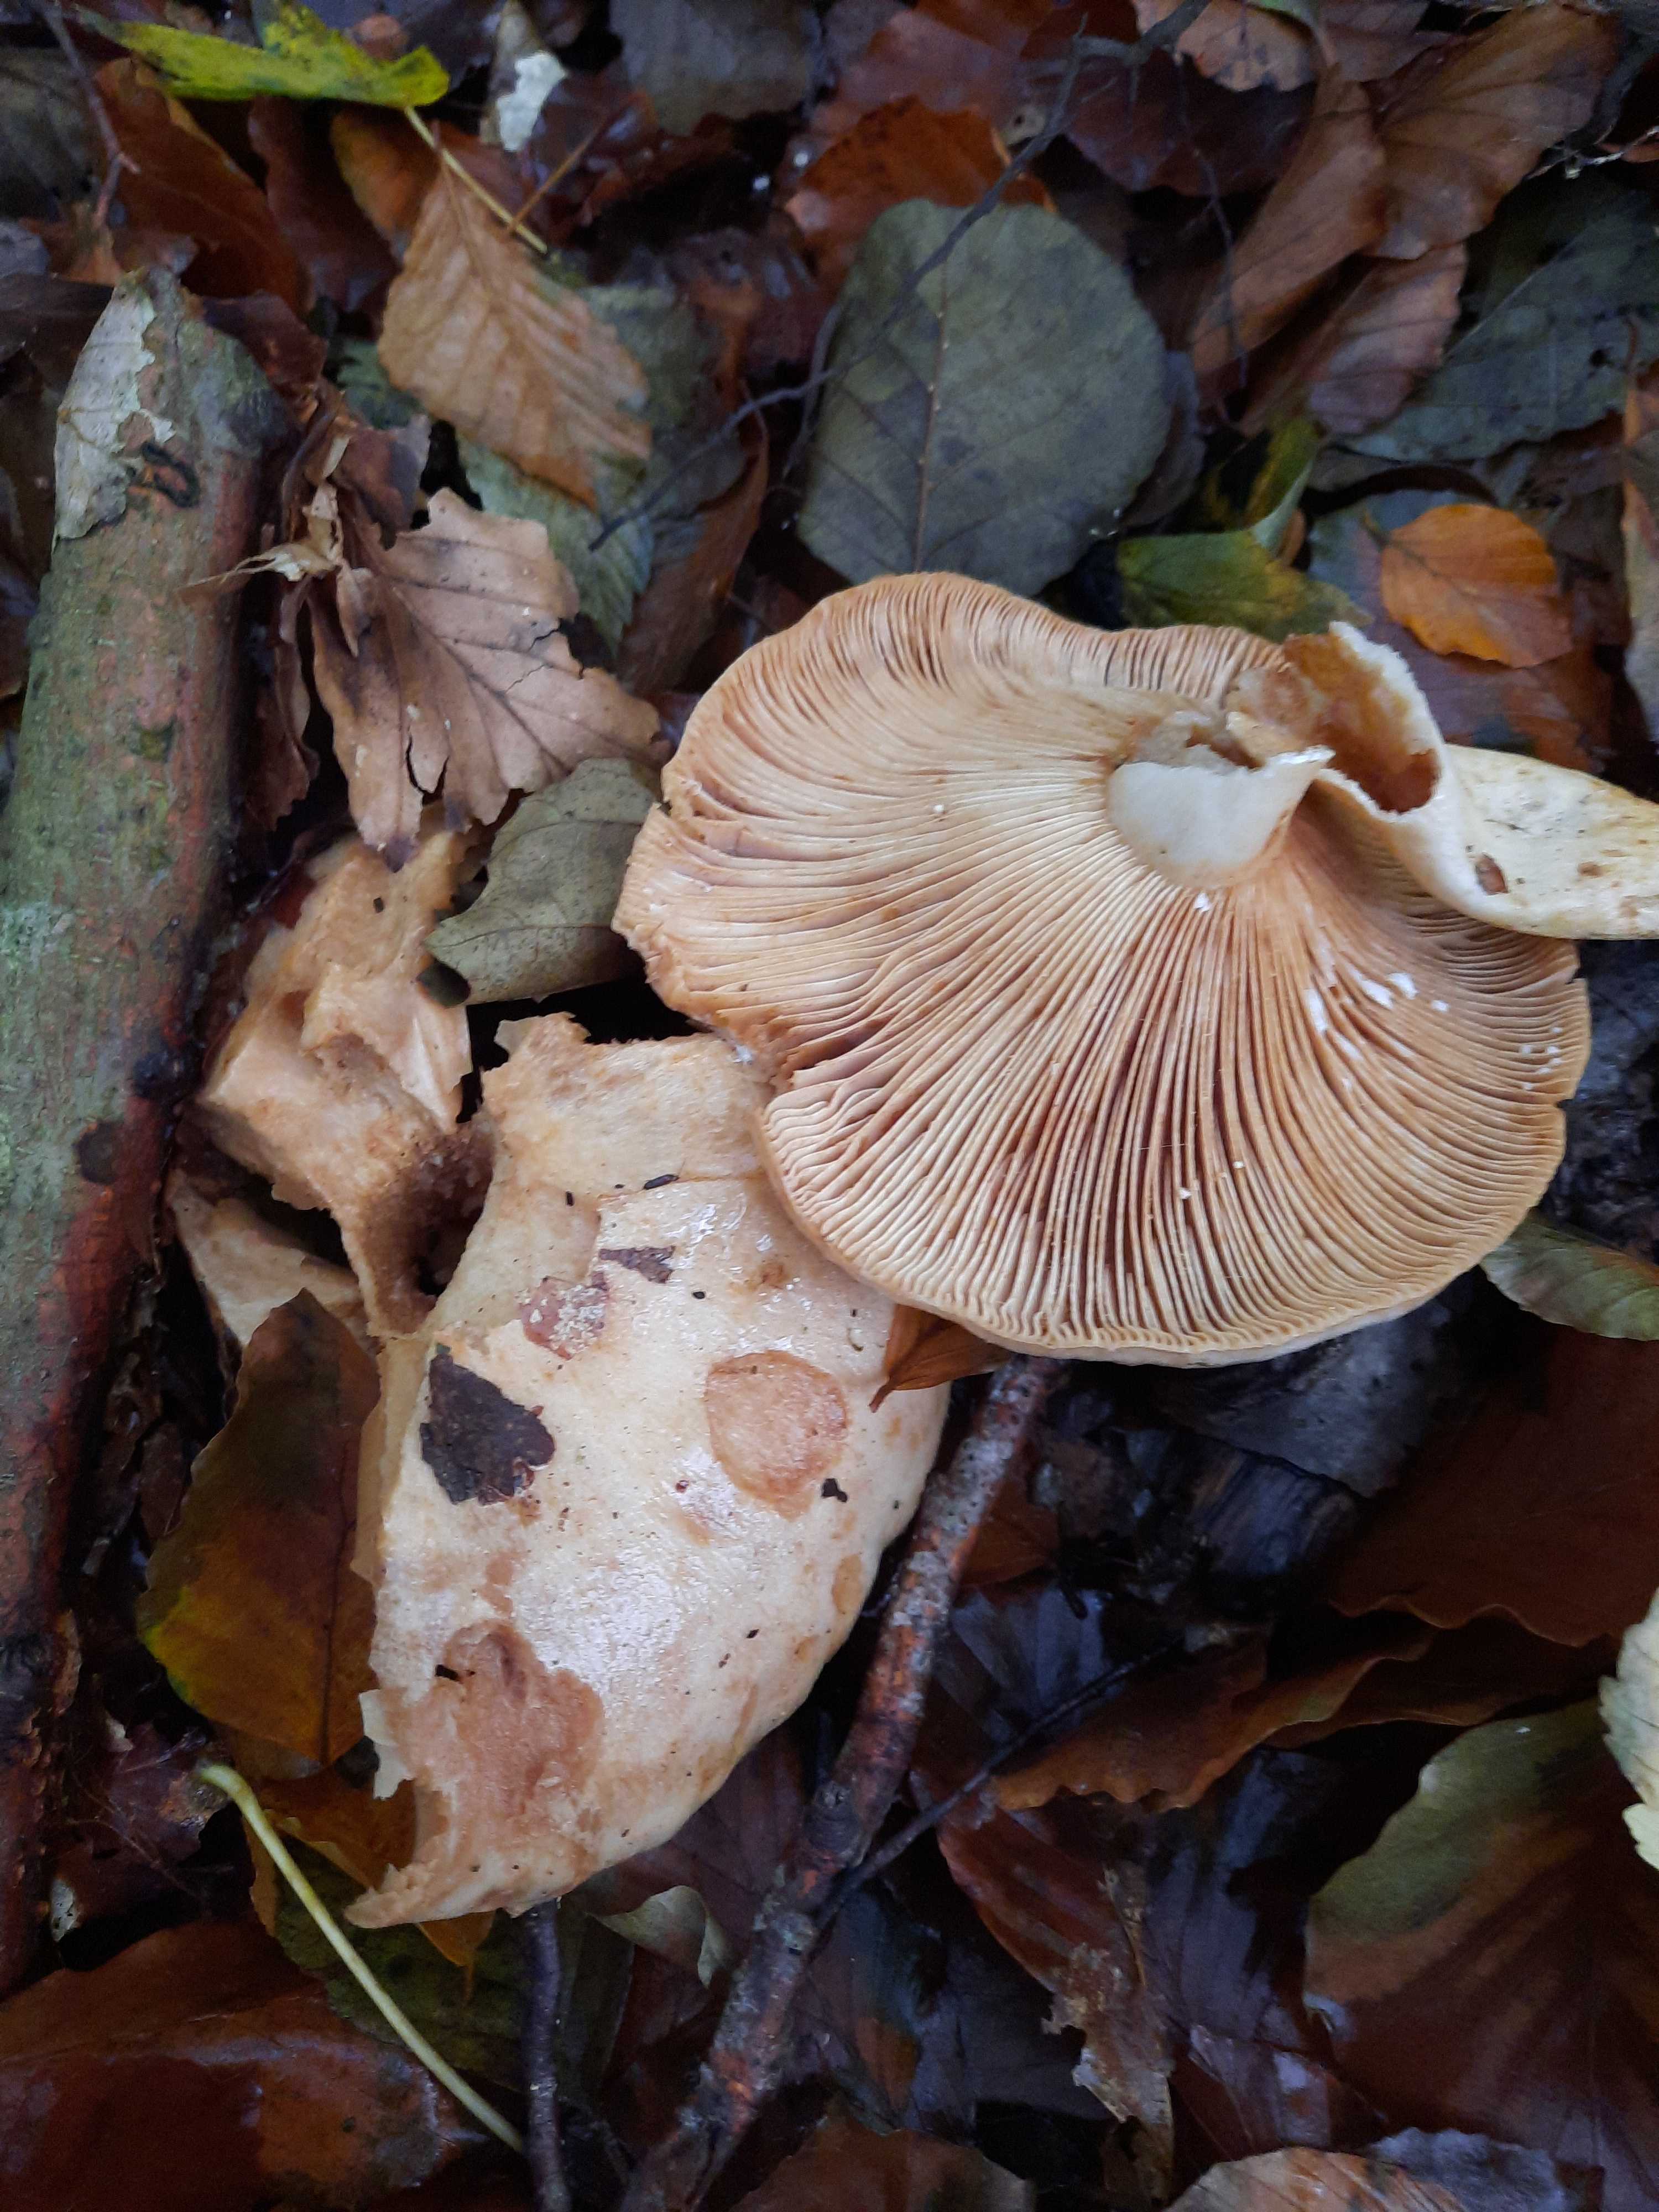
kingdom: Fungi
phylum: Basidiomycota
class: Agaricomycetes
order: Russulales
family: Russulaceae
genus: Lactarius
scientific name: Lactarius pallidus
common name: bleg mælkehat
